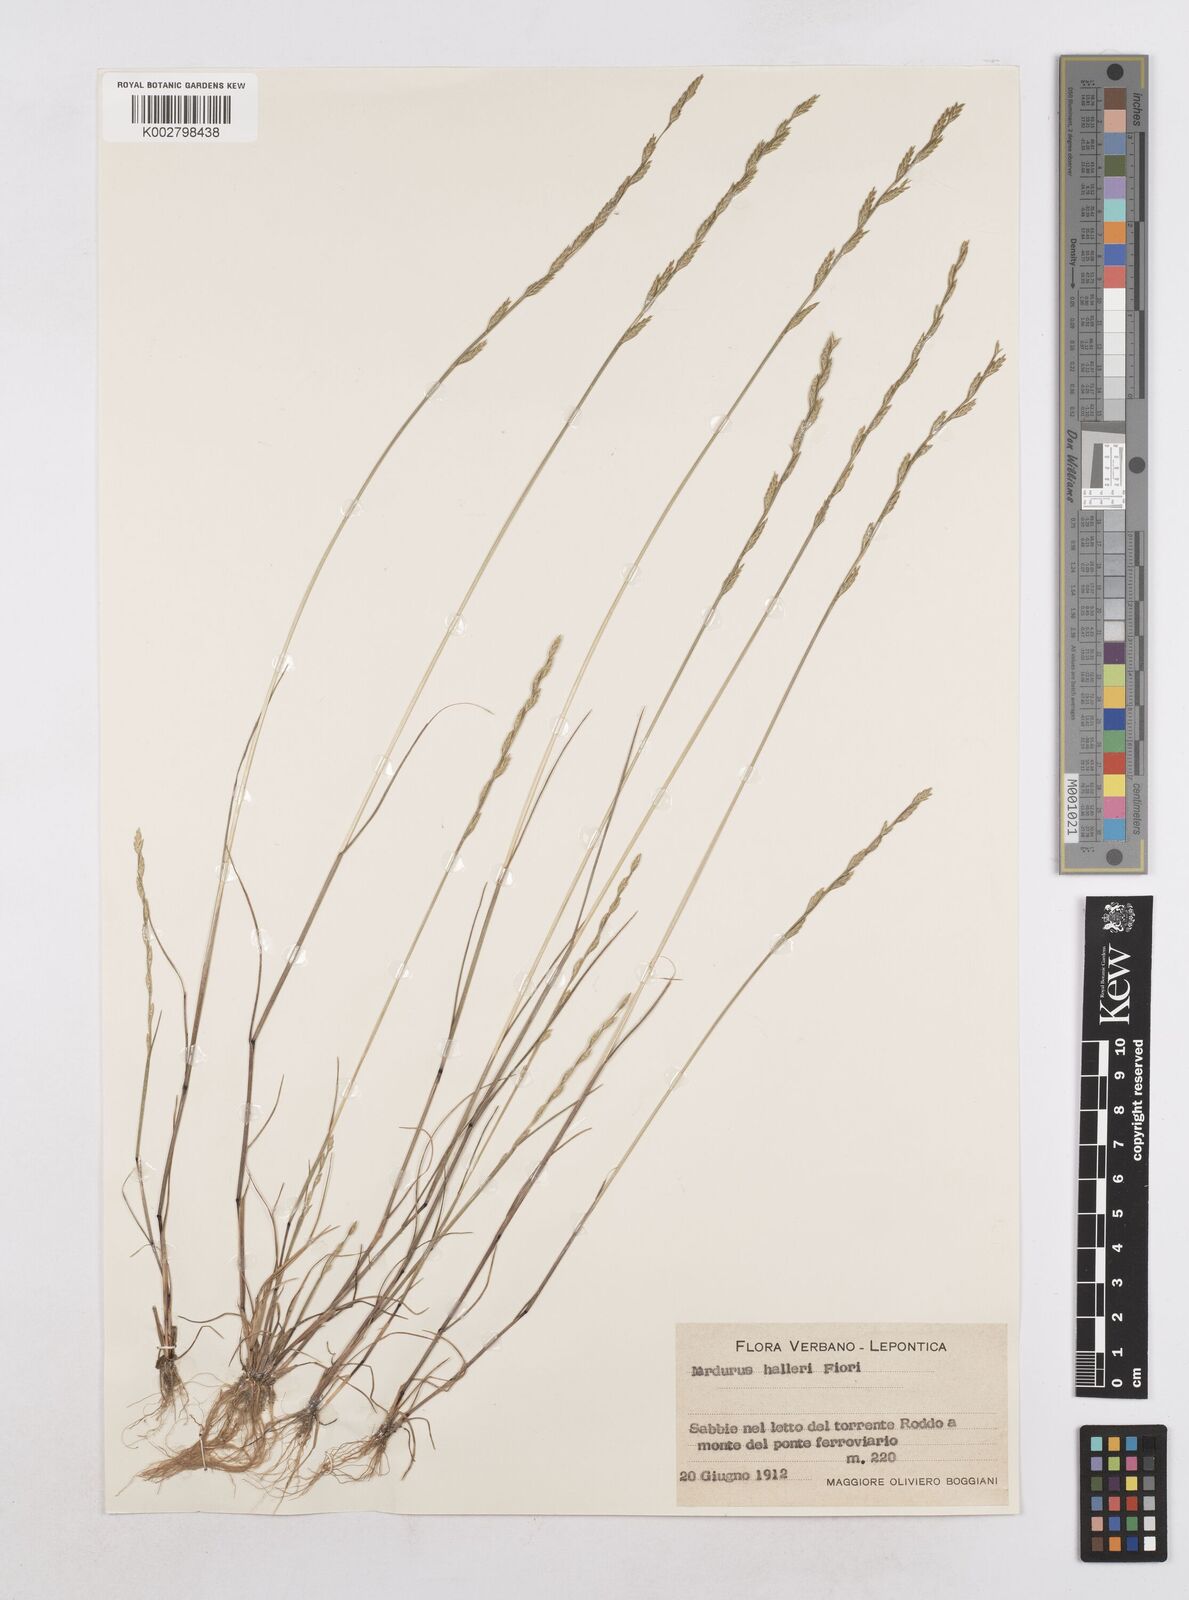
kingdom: Plantae
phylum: Tracheophyta
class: Liliopsida
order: Poales
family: Poaceae
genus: Festuca
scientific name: Festuca lachenalii
